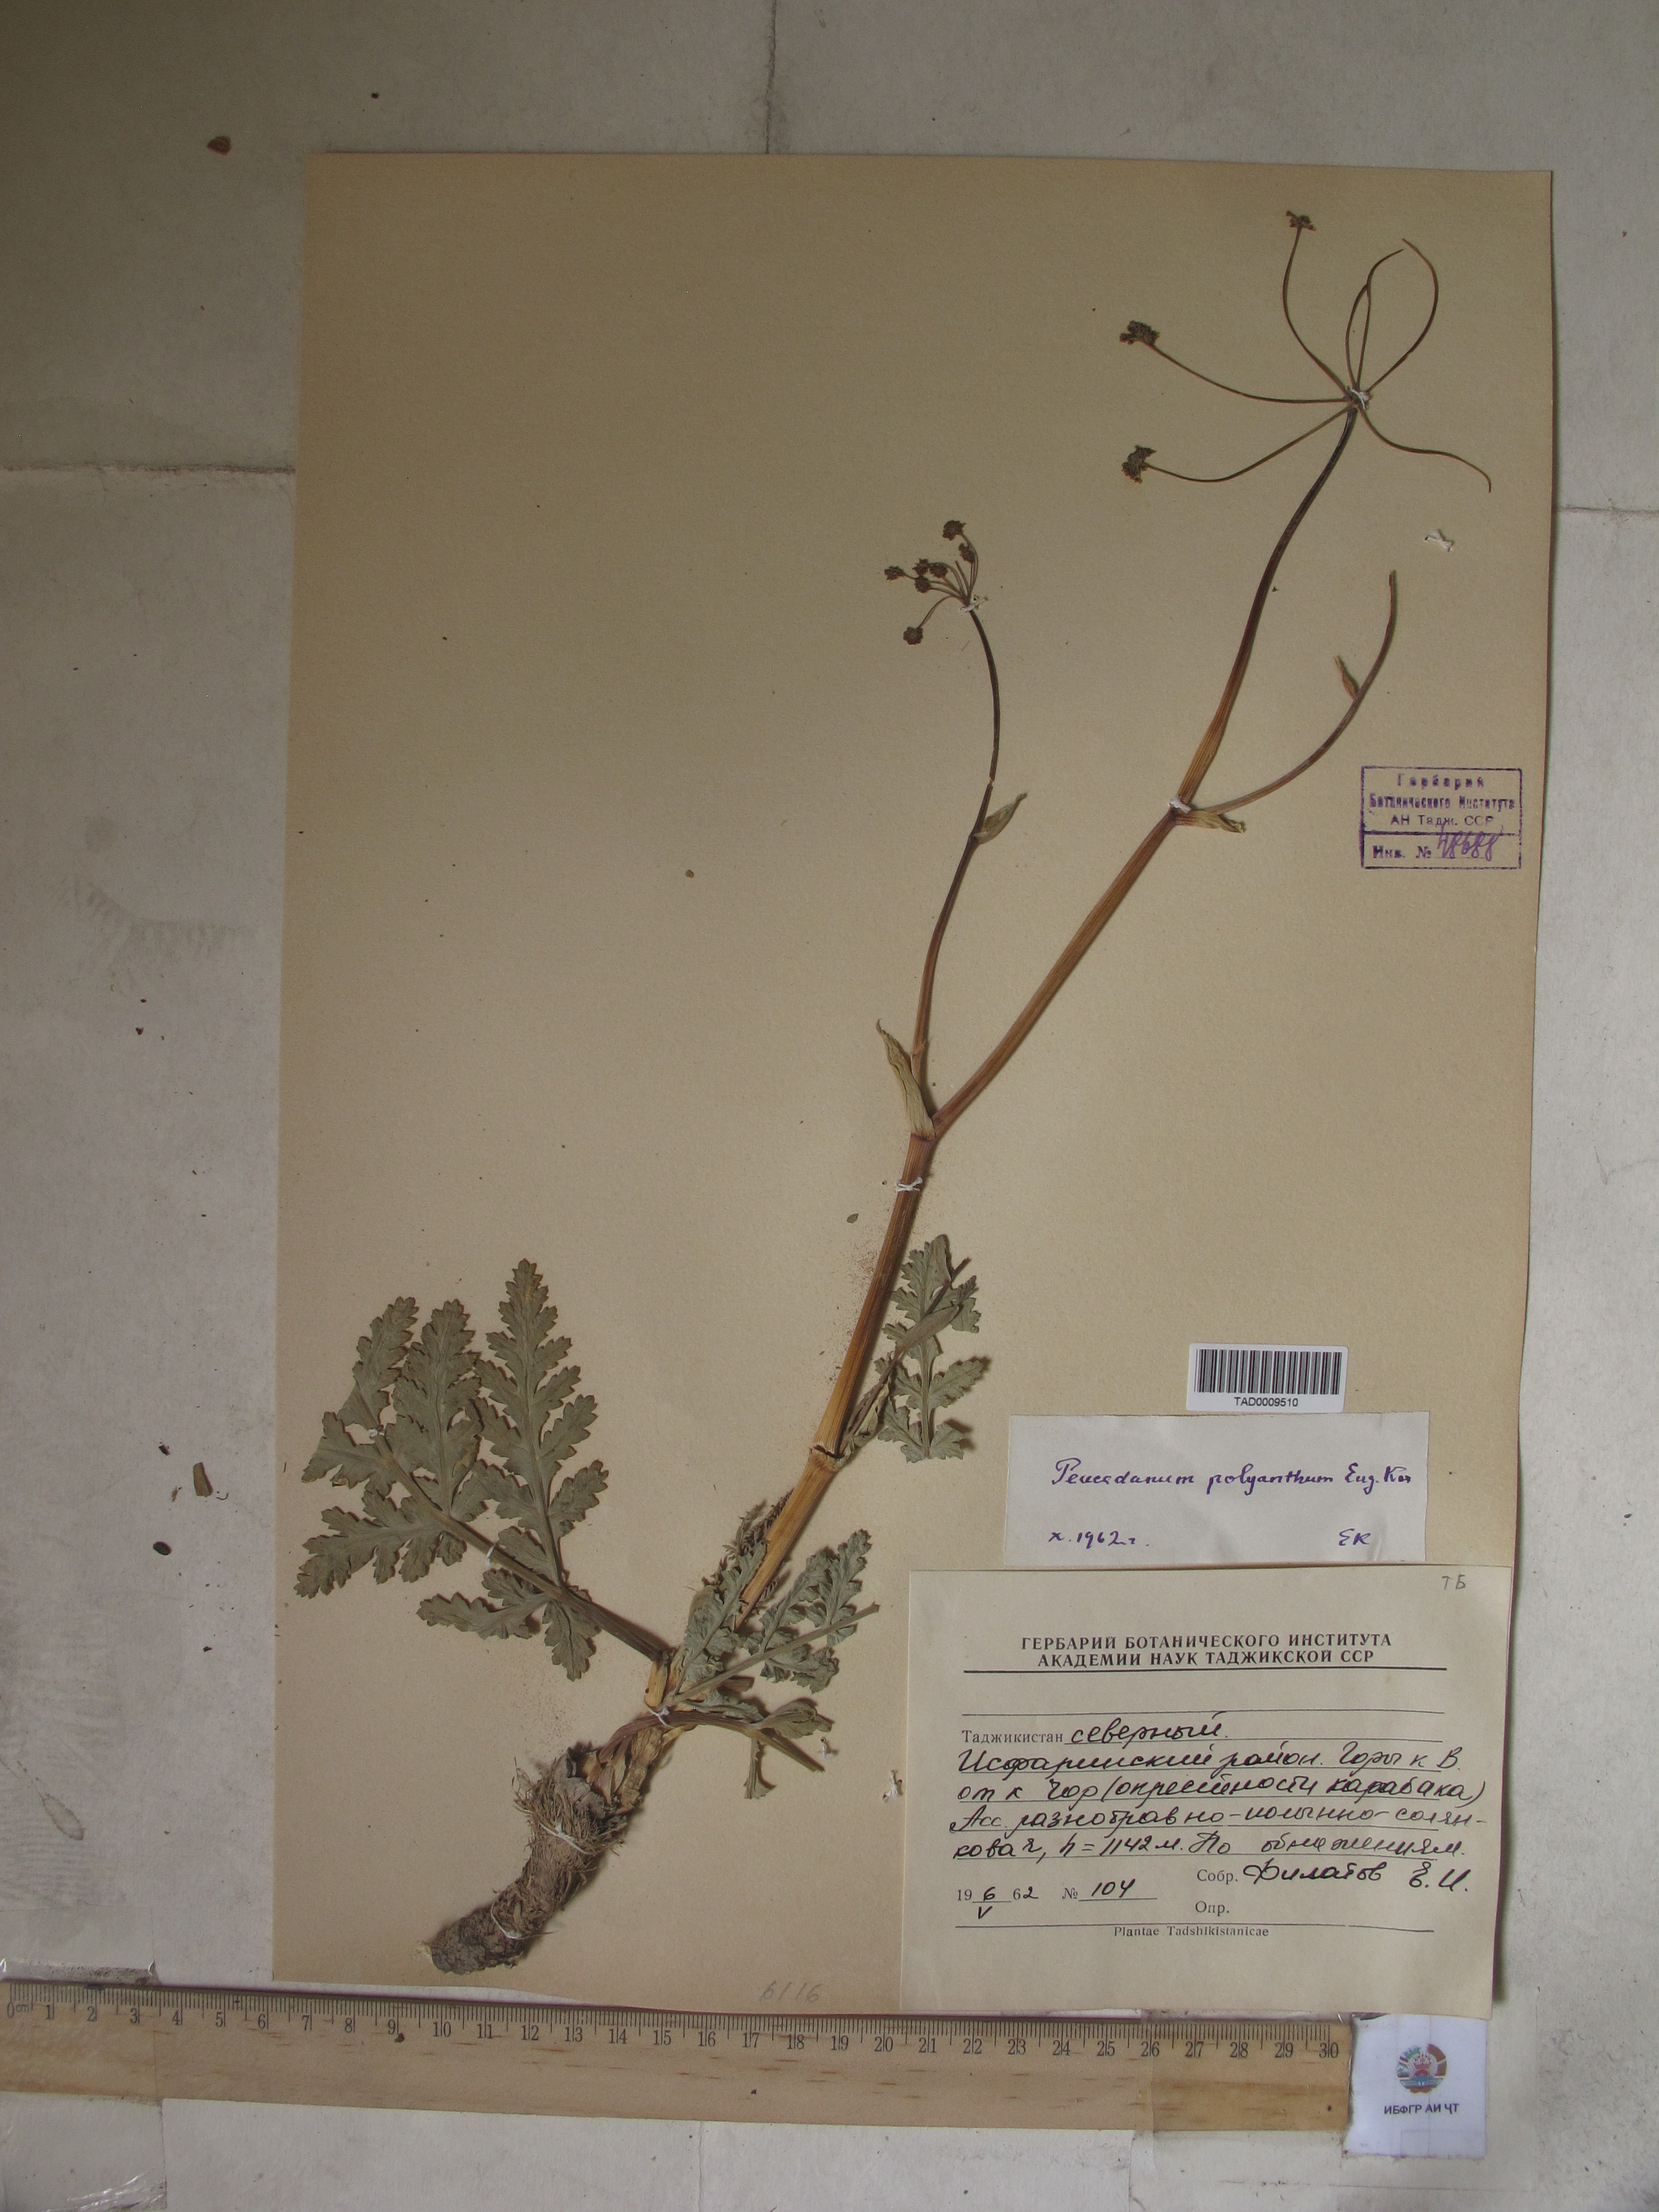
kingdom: Plantae
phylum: Tracheophyta
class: Magnoliopsida
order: Apiales
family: Apiaceae
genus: Fergania
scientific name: Fergania polyantha
